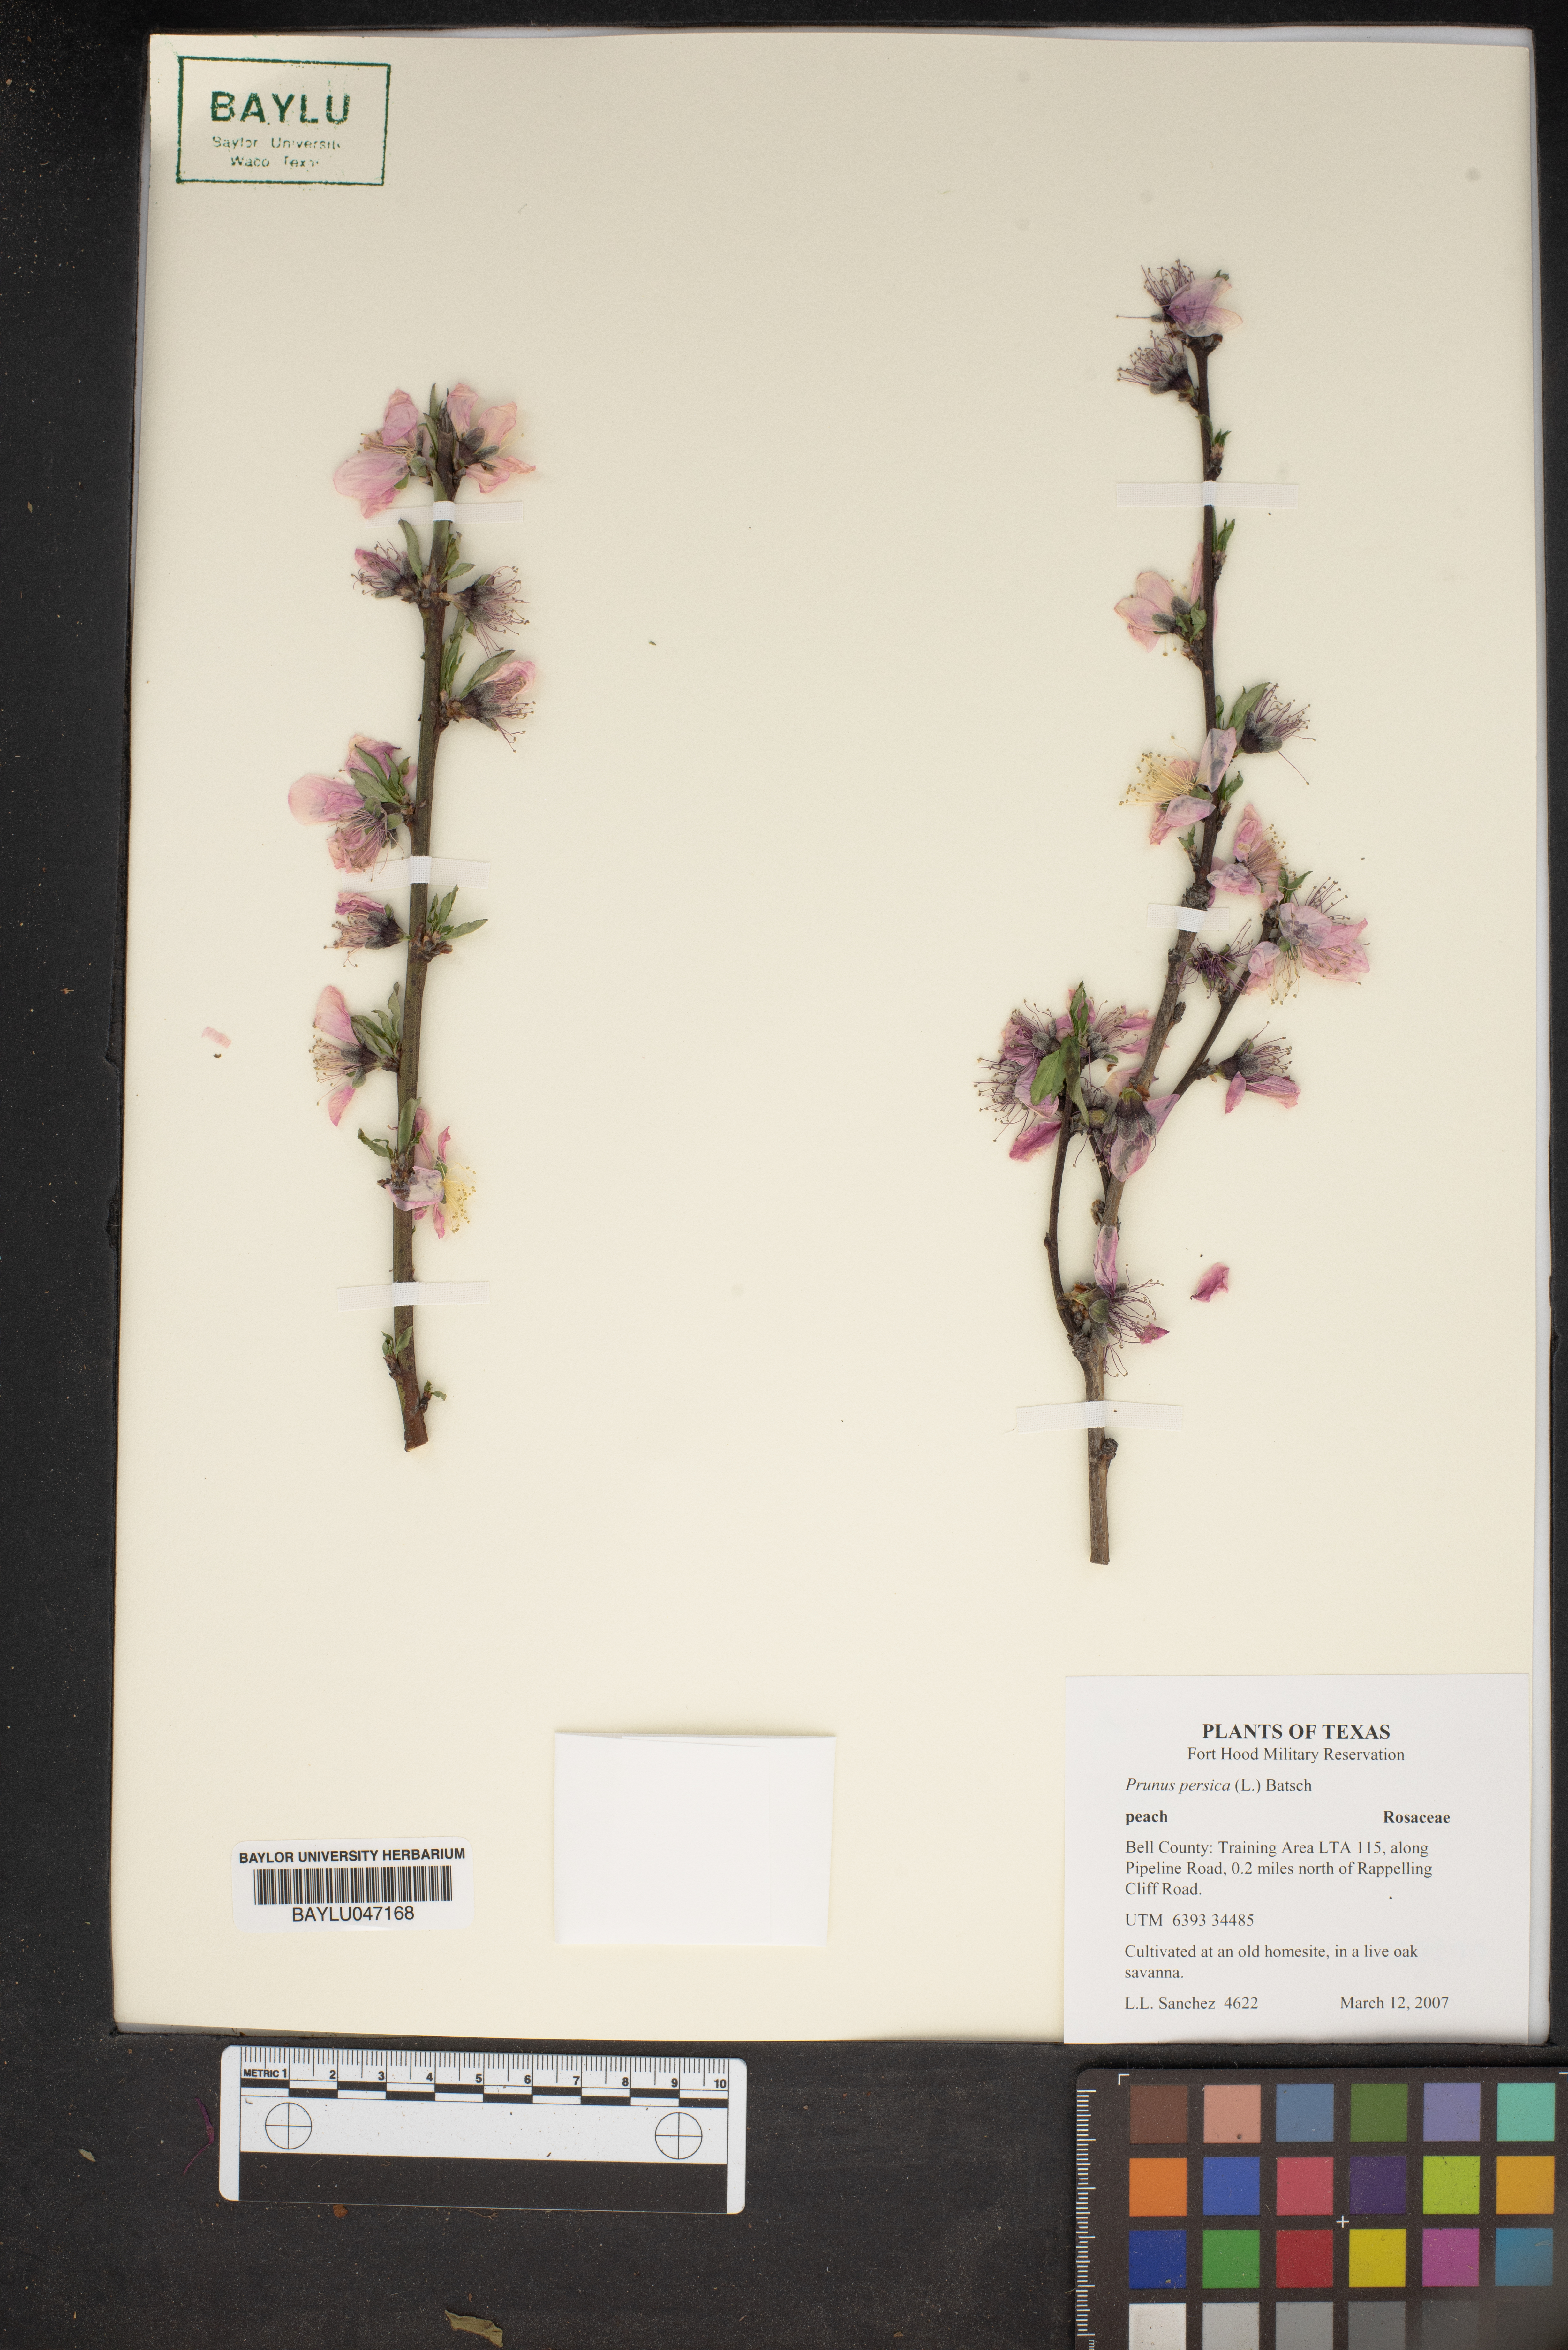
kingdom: Plantae
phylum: Tracheophyta
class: Magnoliopsida
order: Rosales
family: Rosaceae
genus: Prunus
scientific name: Prunus persica
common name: Peach
